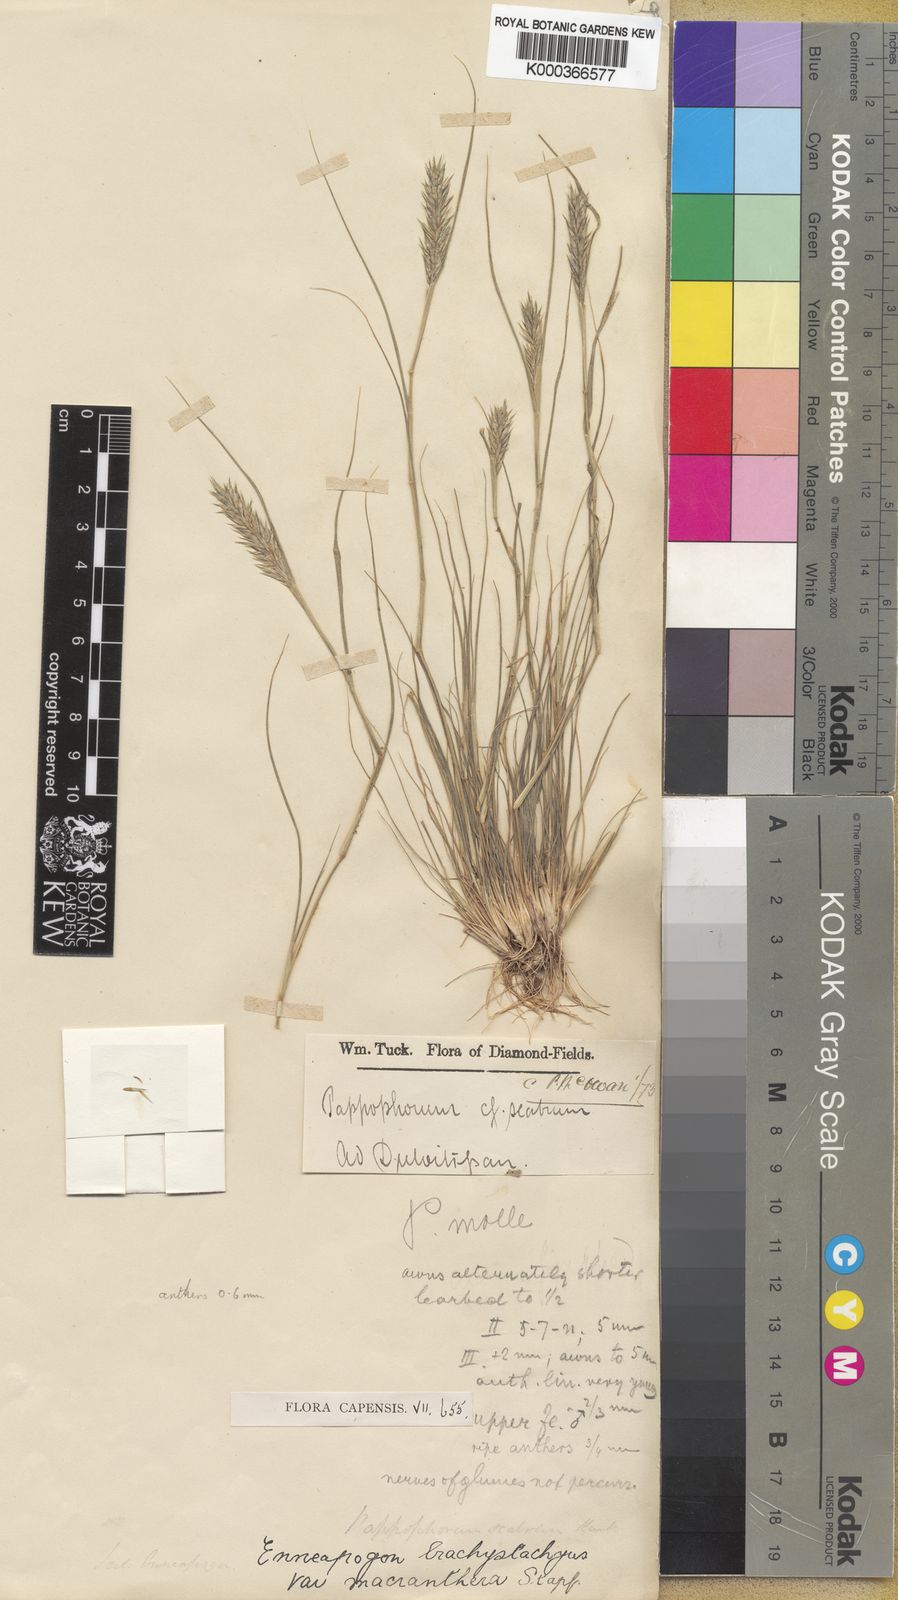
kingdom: Plantae
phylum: Tracheophyta
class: Liliopsida
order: Poales
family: Poaceae
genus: Enneapogon
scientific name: Enneapogon desvauxii
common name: Feather pappus grass
